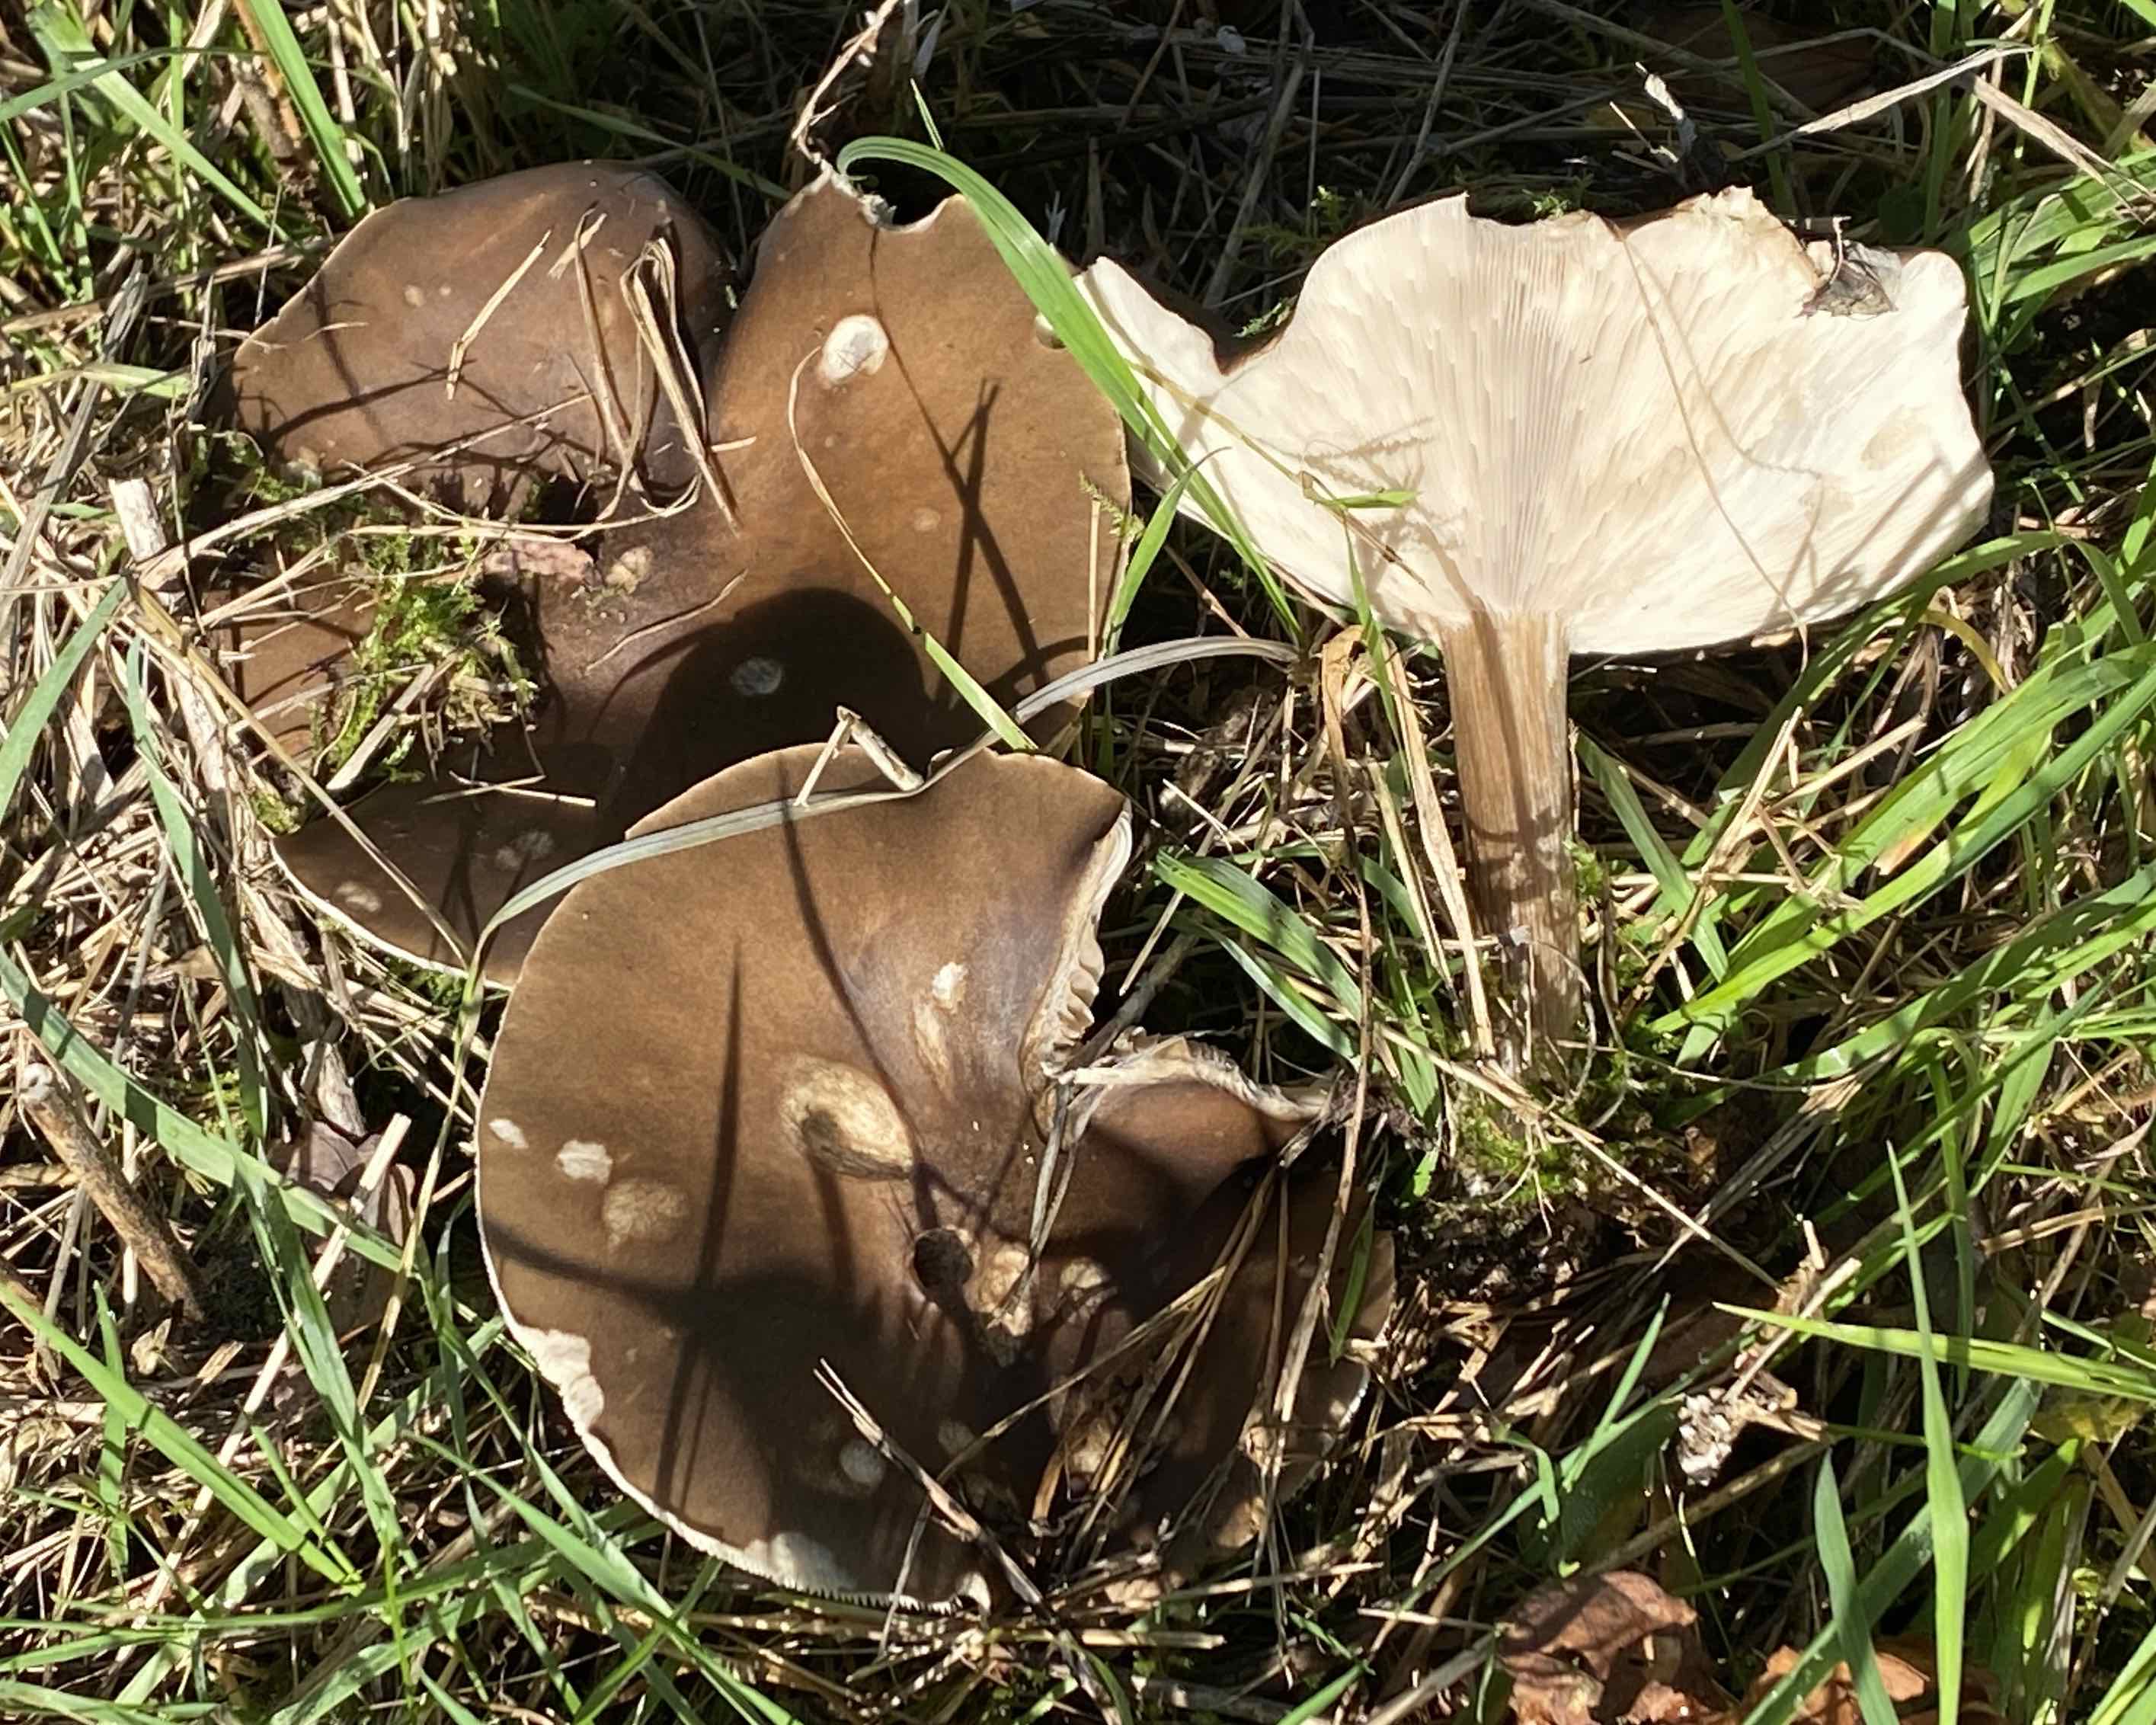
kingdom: Fungi
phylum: Basidiomycota
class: Agaricomycetes
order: Agaricales
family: Tricholomataceae
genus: Melanoleuca
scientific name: Melanoleuca grammopodia
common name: stribestokket munkehat
